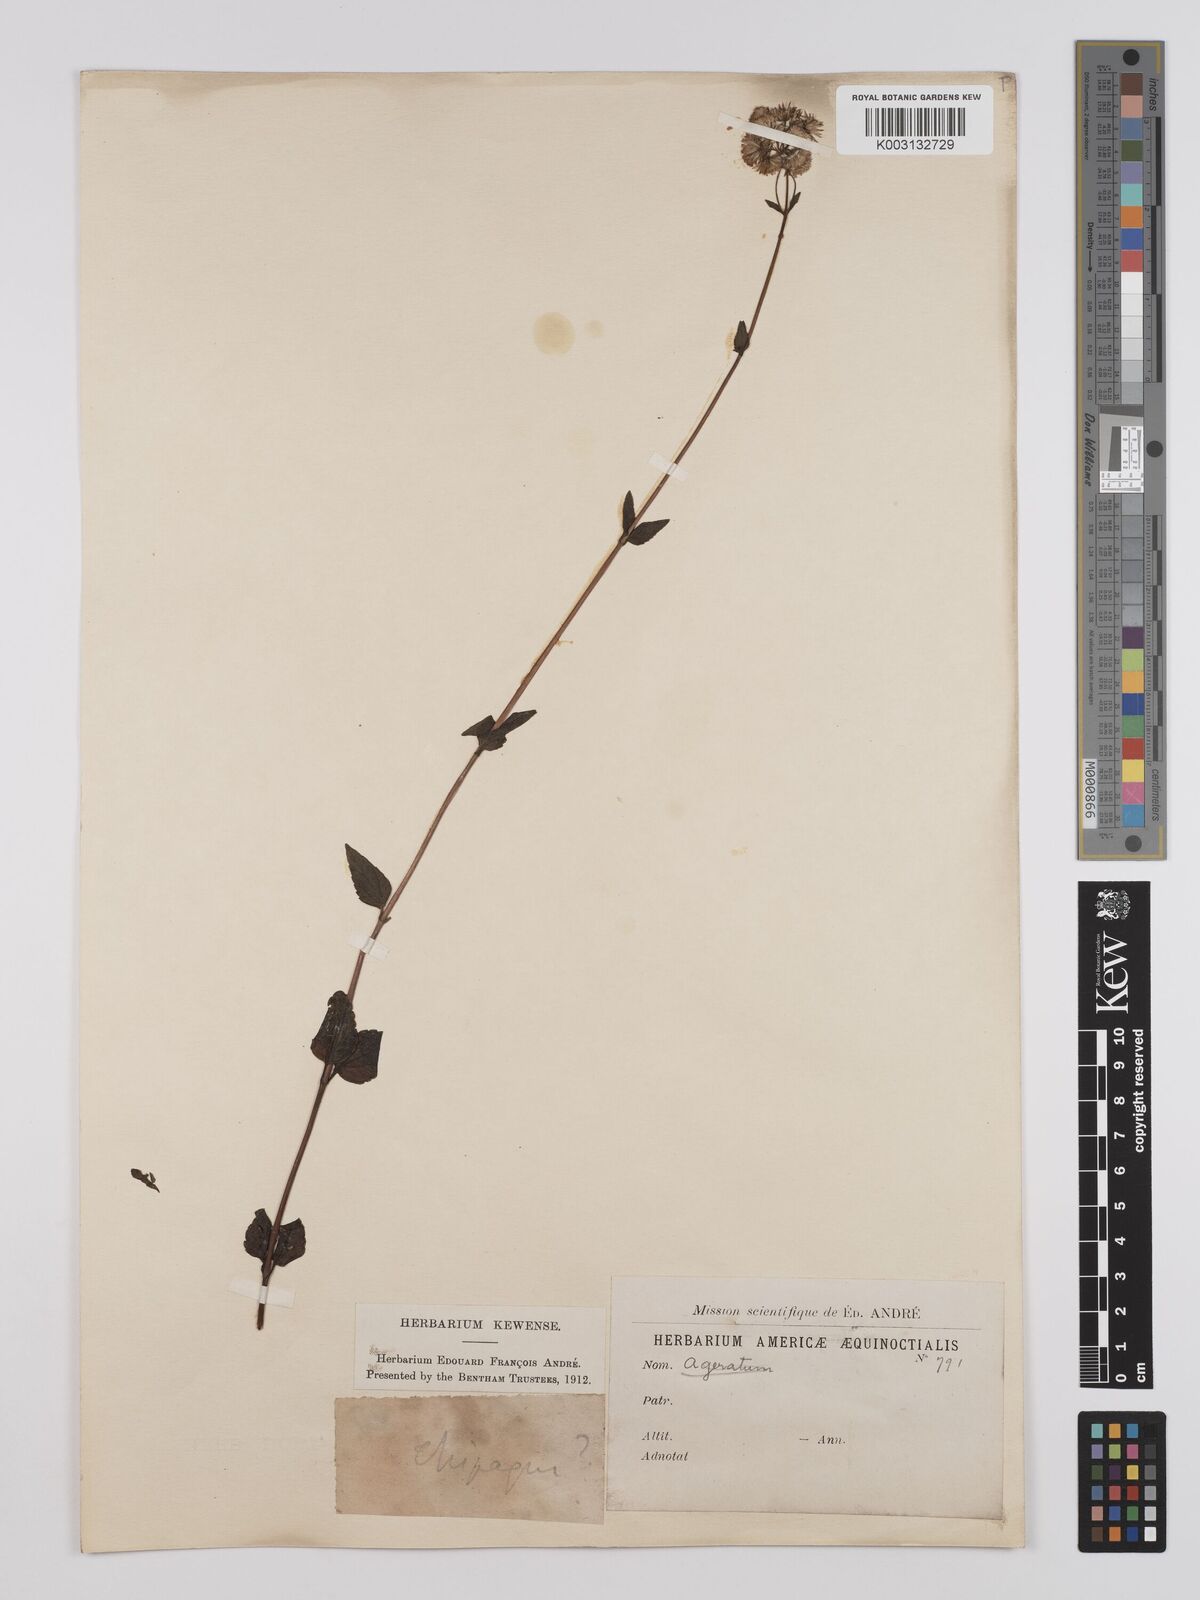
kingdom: Plantae
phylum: Tracheophyta
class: Magnoliopsida
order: Asterales
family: Asteraceae
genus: Ageratina
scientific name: Ageratina gracilis
